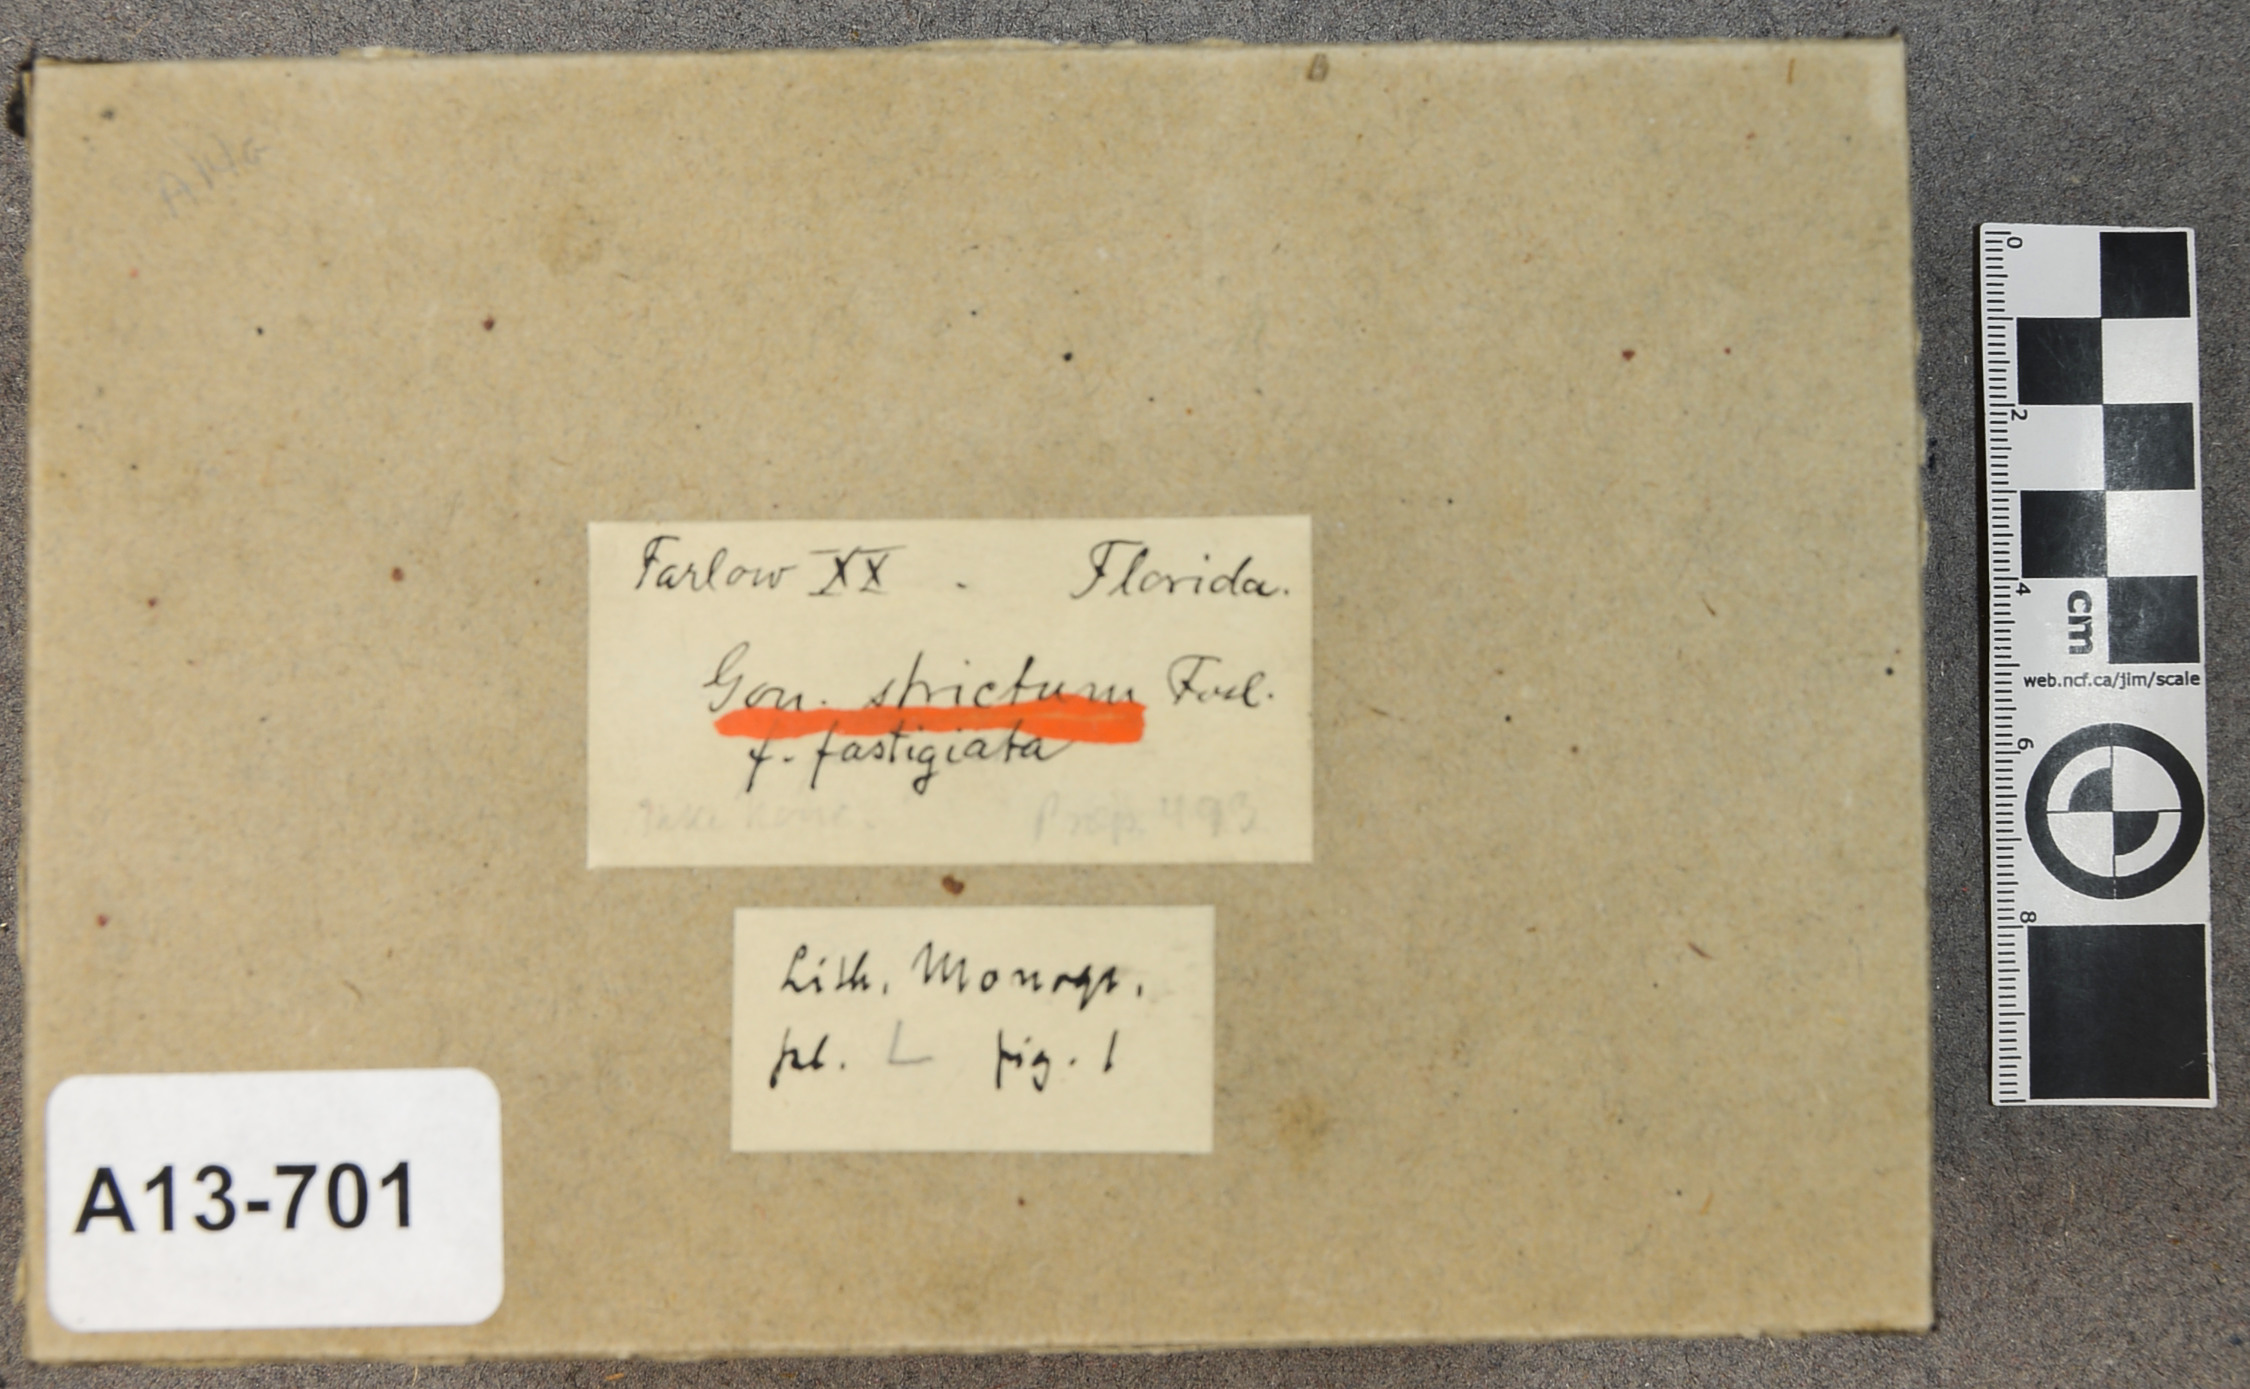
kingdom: Plantae
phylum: Rhodophyta
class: Florideophyceae
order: Corallinales
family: Spongitaceae
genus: Neogoniolithon
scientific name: Neogoniolithon strictum
